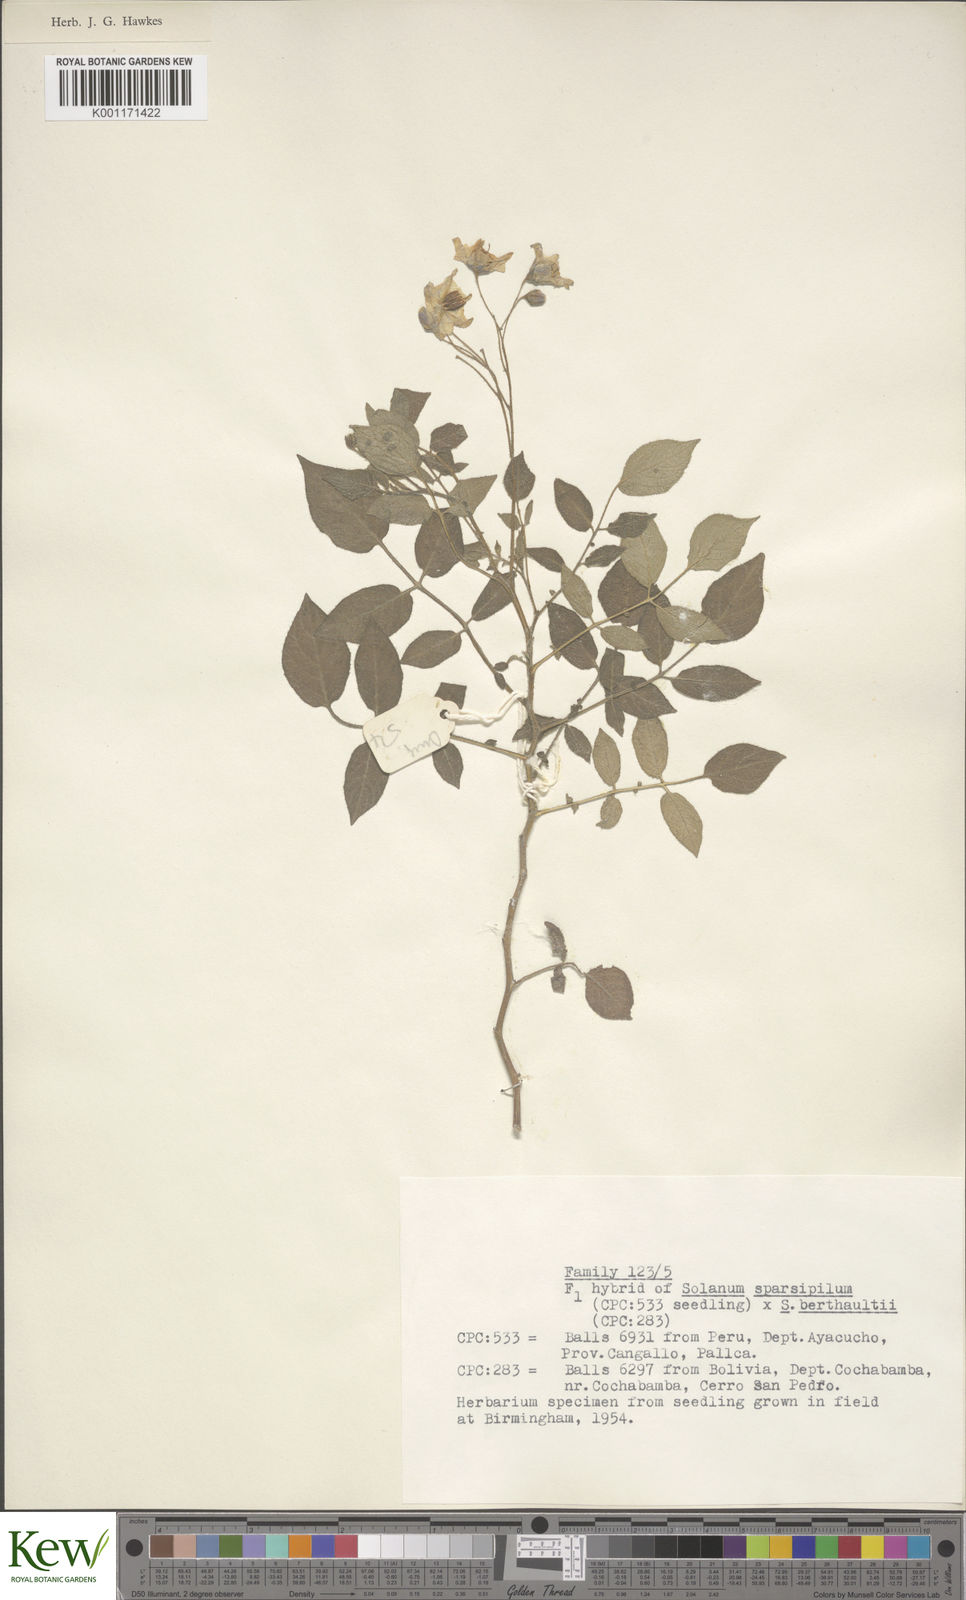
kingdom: Plantae
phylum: Tracheophyta
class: Magnoliopsida
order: Solanales
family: Solanaceae
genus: Solanum
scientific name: Solanum brevicaule
